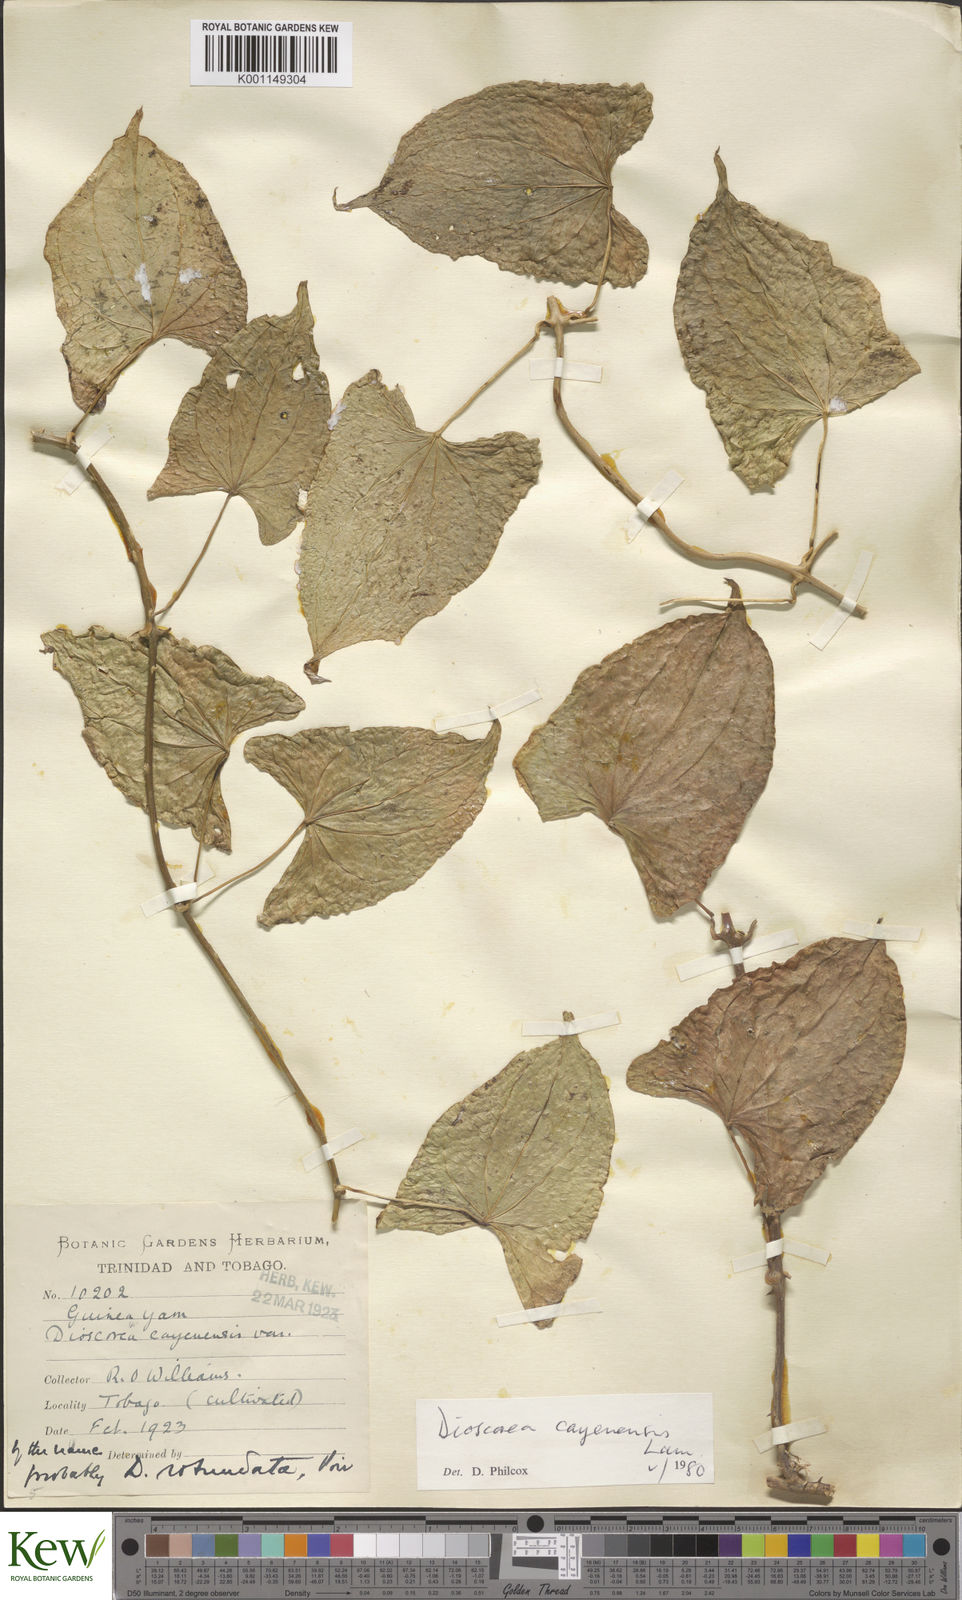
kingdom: Plantae
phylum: Tracheophyta
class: Liliopsida
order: Dioscoreales
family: Dioscoreaceae
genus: Dioscorea
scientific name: Dioscorea cayenensis
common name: Attoto yam
